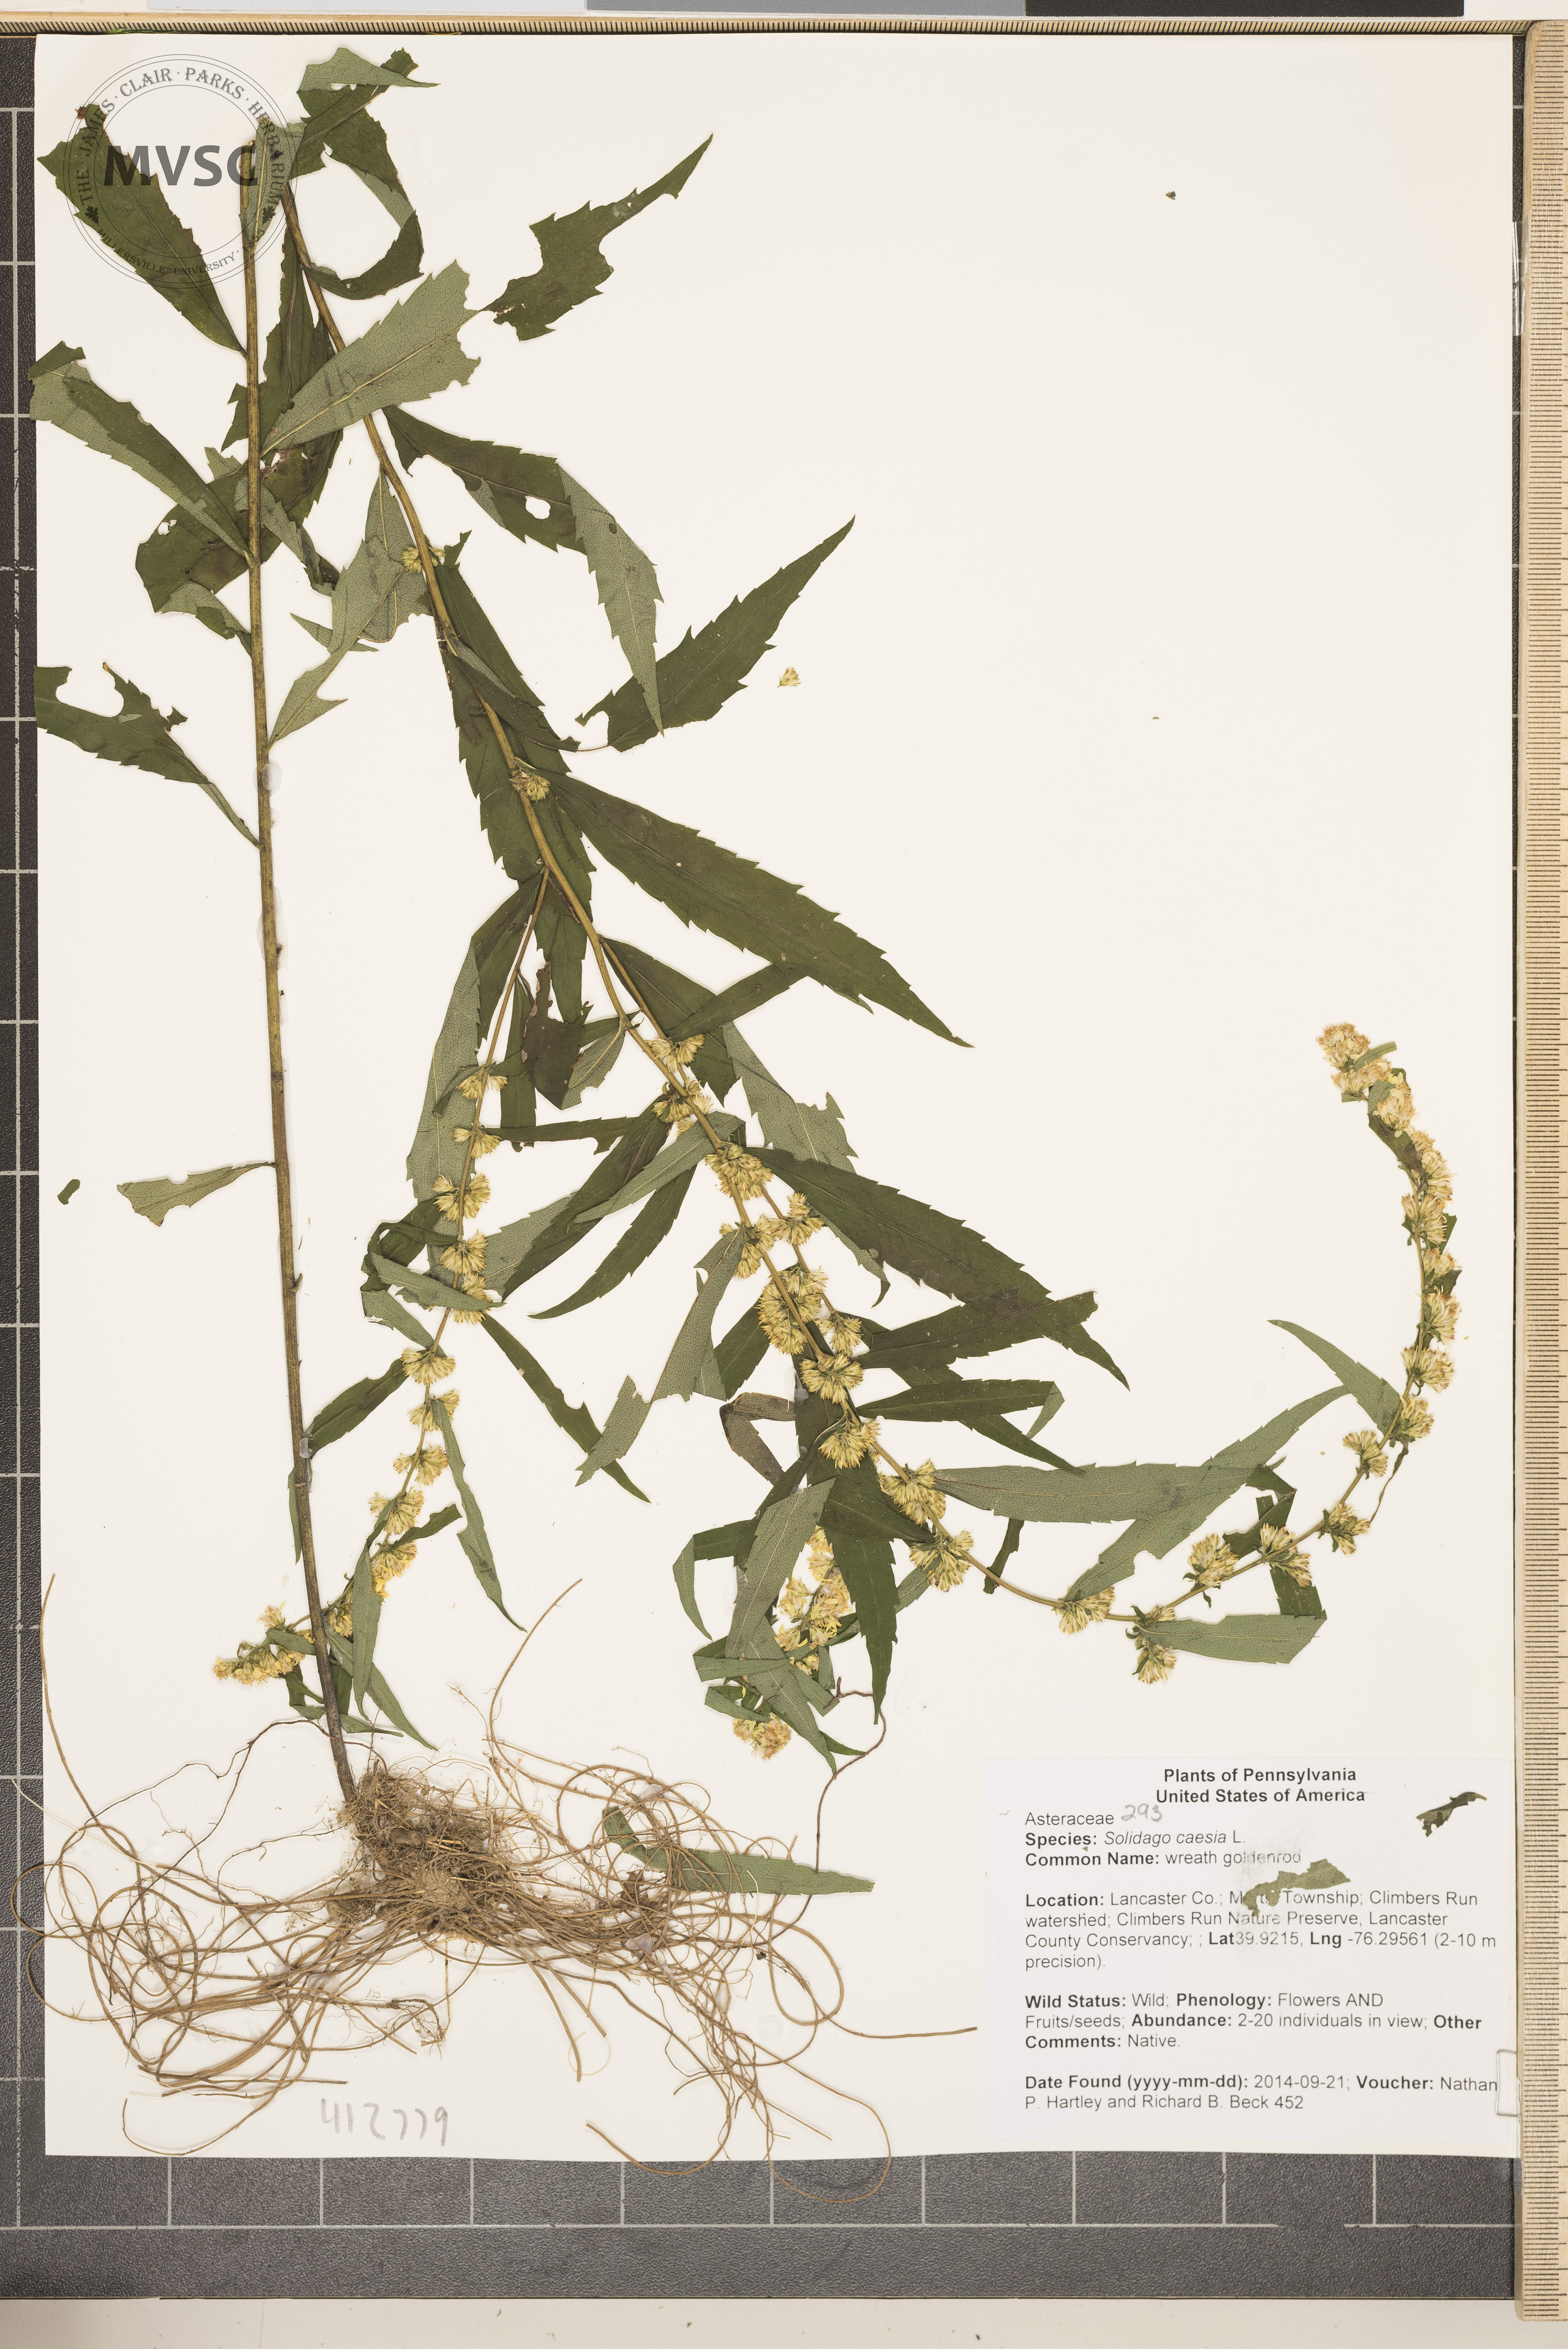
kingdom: Plantae
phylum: Tracheophyta
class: Magnoliopsida
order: Asterales
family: Asteraceae
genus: Solidago
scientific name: Solidago caesia
